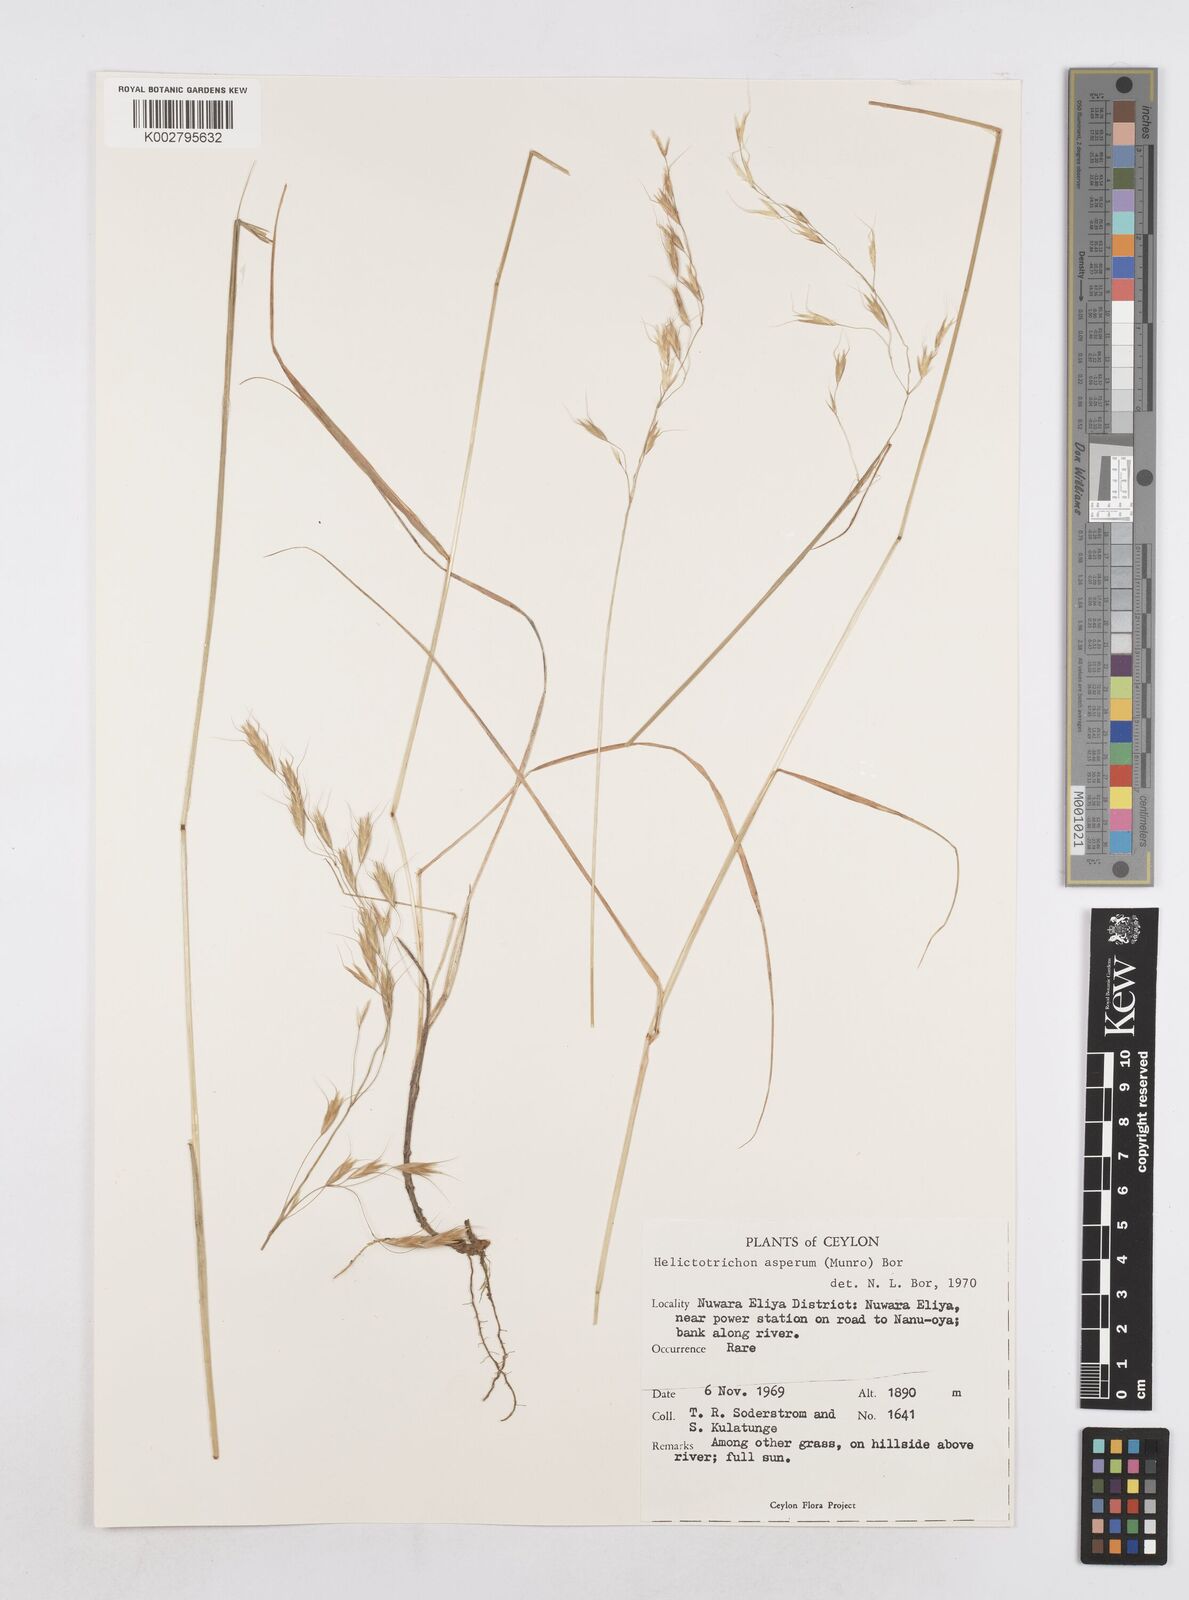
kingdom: Plantae
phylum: Tracheophyta
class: Liliopsida
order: Poales
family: Poaceae
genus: Trisetopsis
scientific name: Trisetopsis virescens
